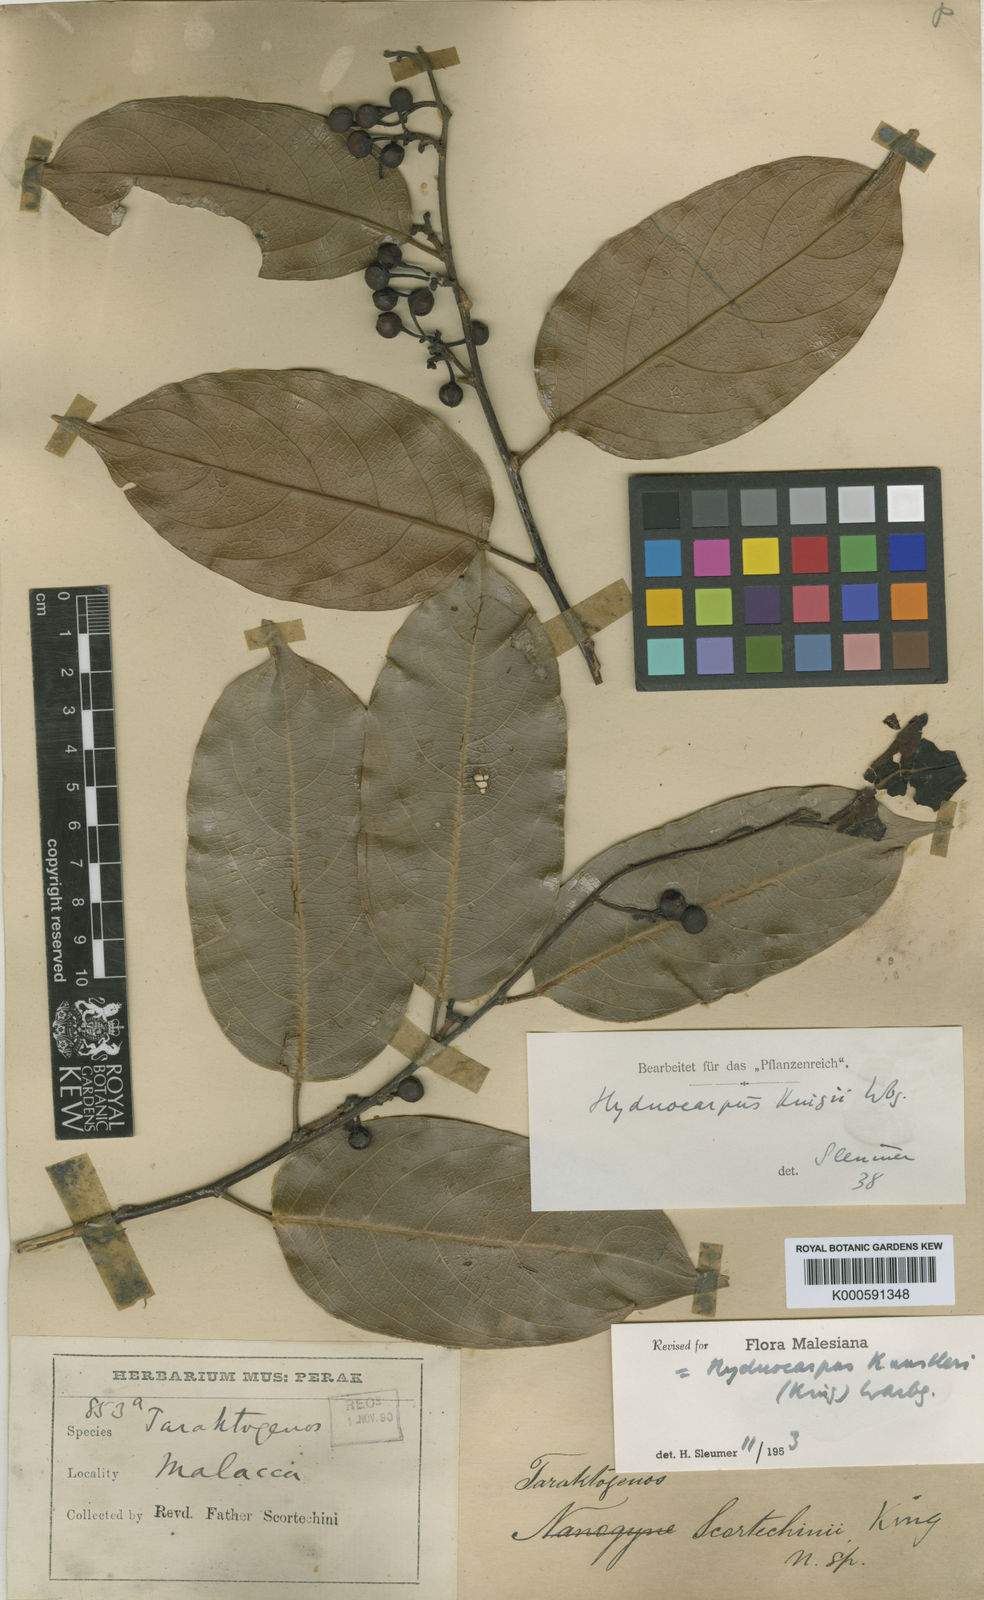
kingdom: Plantae
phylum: Tracheophyta
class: Magnoliopsida
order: Malpighiales
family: Achariaceae
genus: Hydnocarpus
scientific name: Hydnocarpus kunstleri
